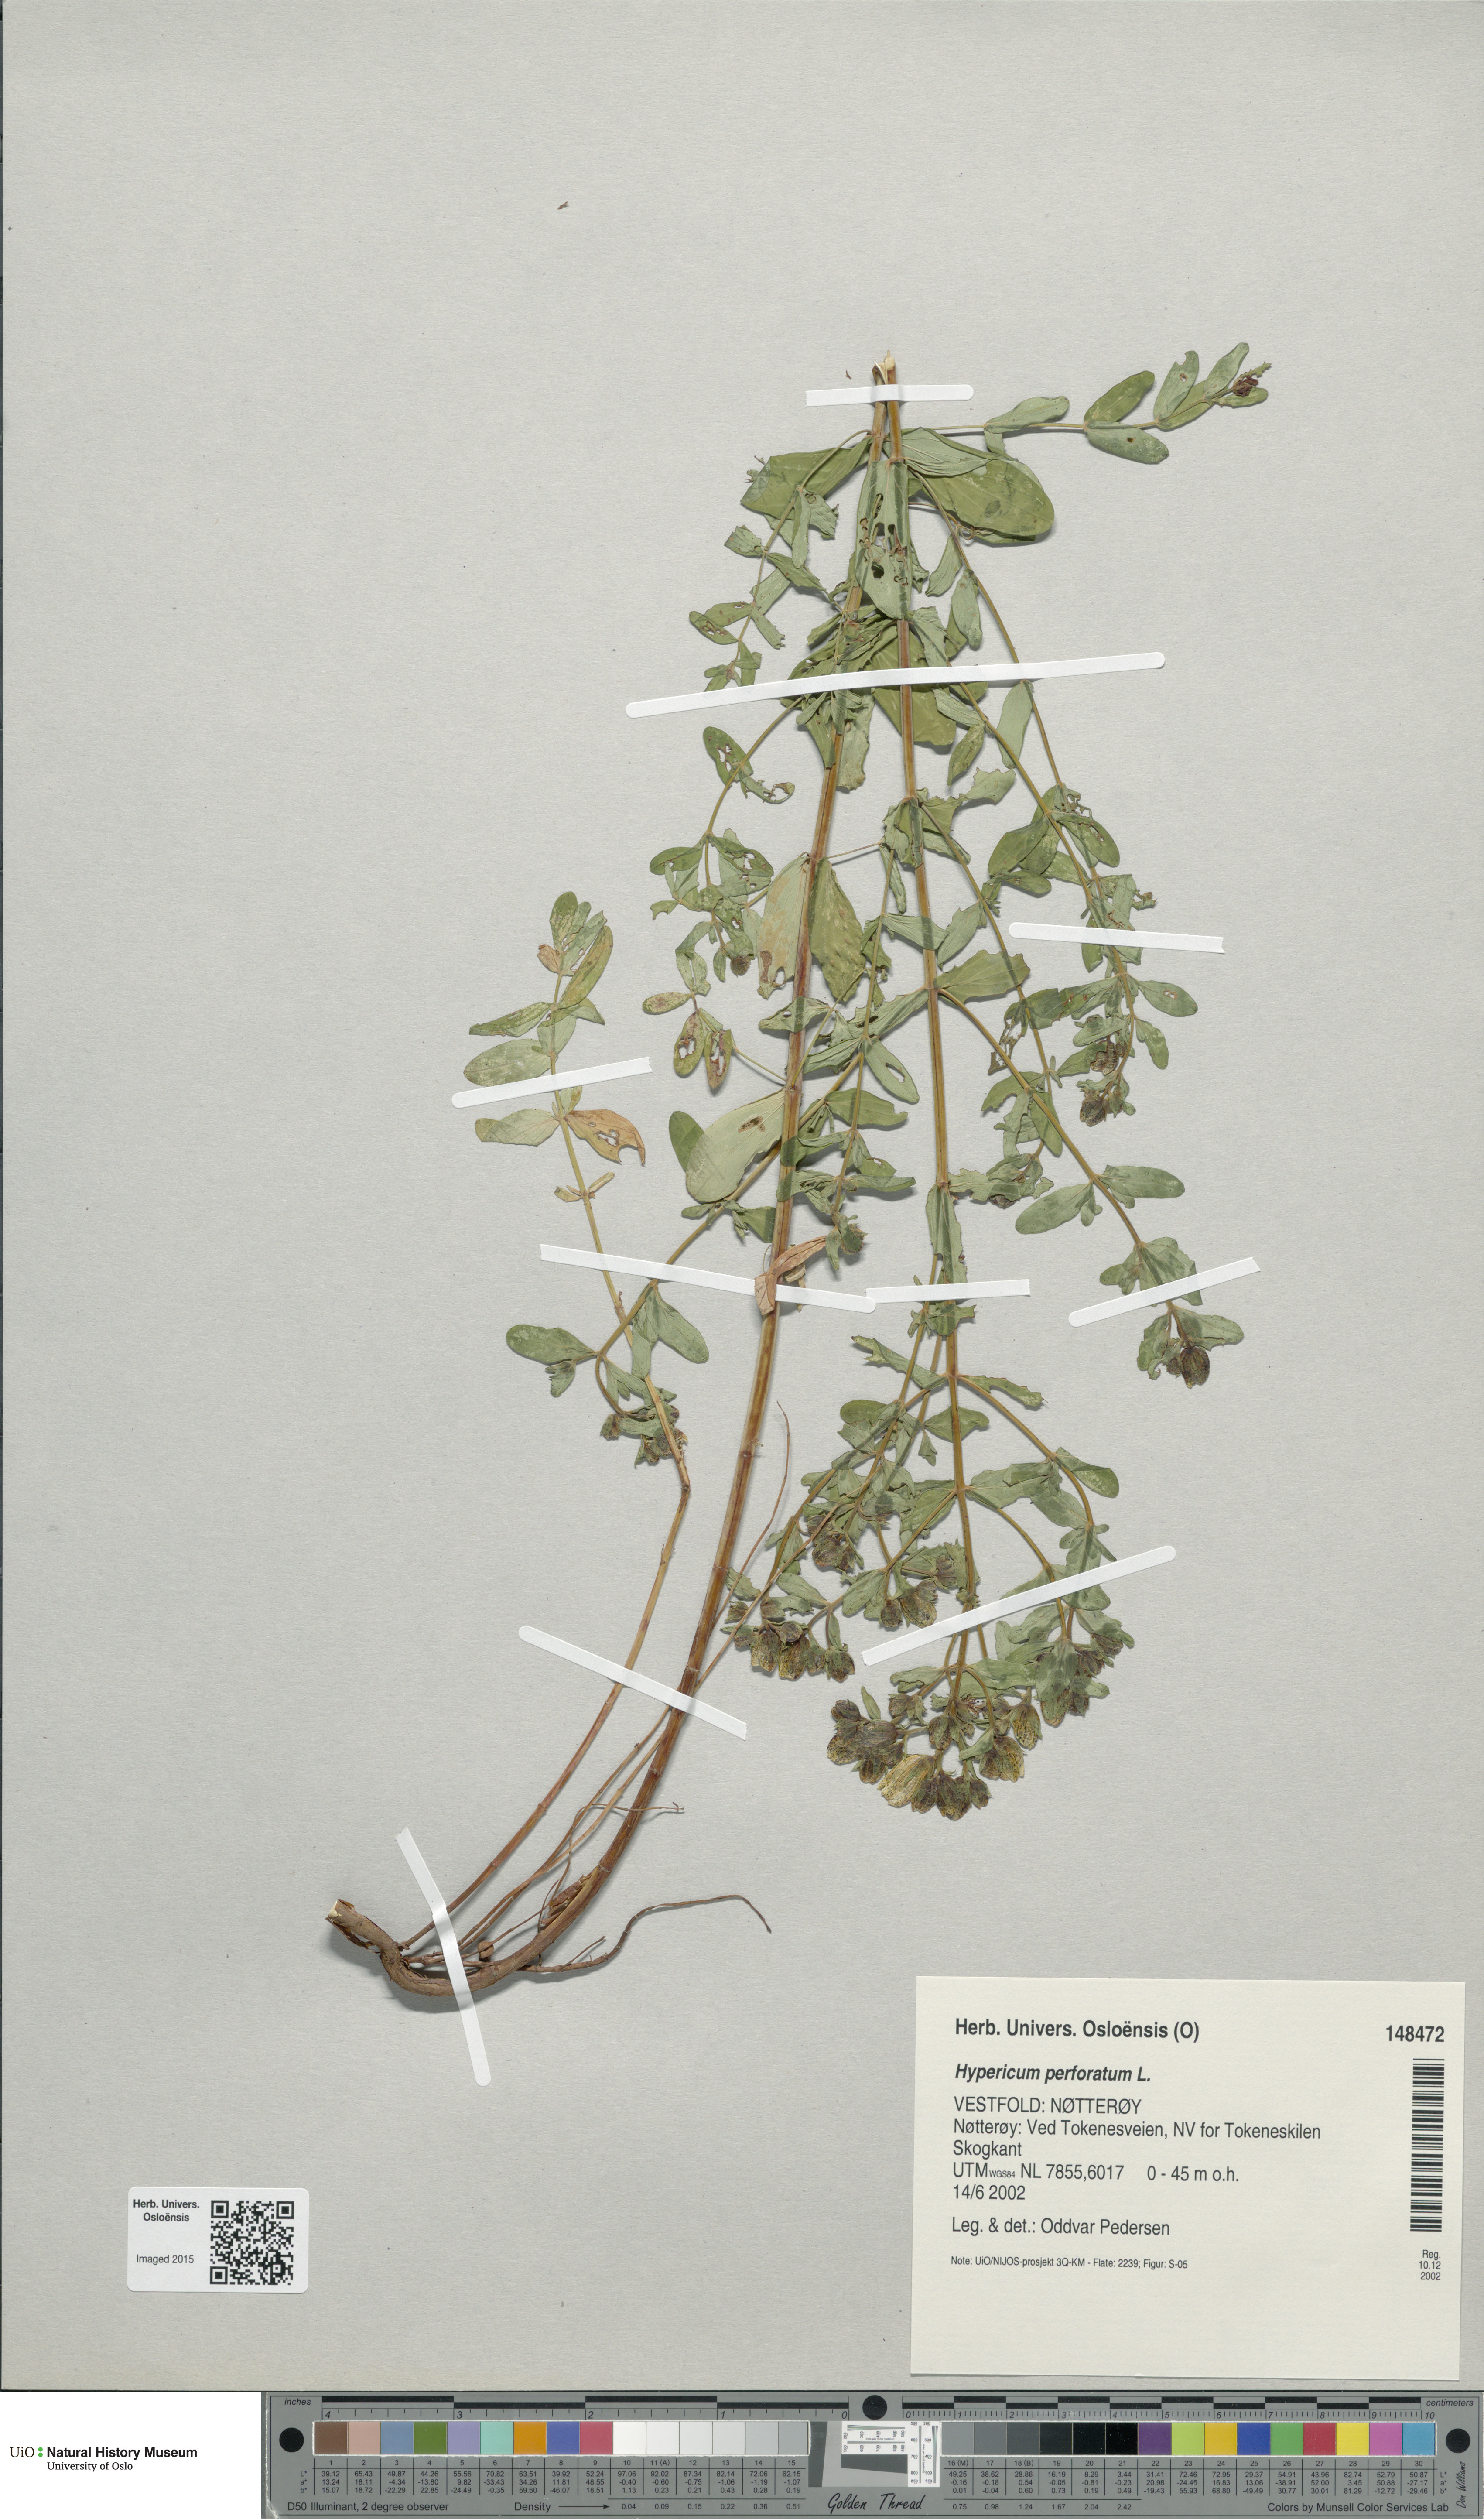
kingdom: Plantae
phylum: Tracheophyta
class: Magnoliopsida
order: Malpighiales
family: Hypericaceae
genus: Hypericum
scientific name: Hypericum perforatum
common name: Common st. johnswort
